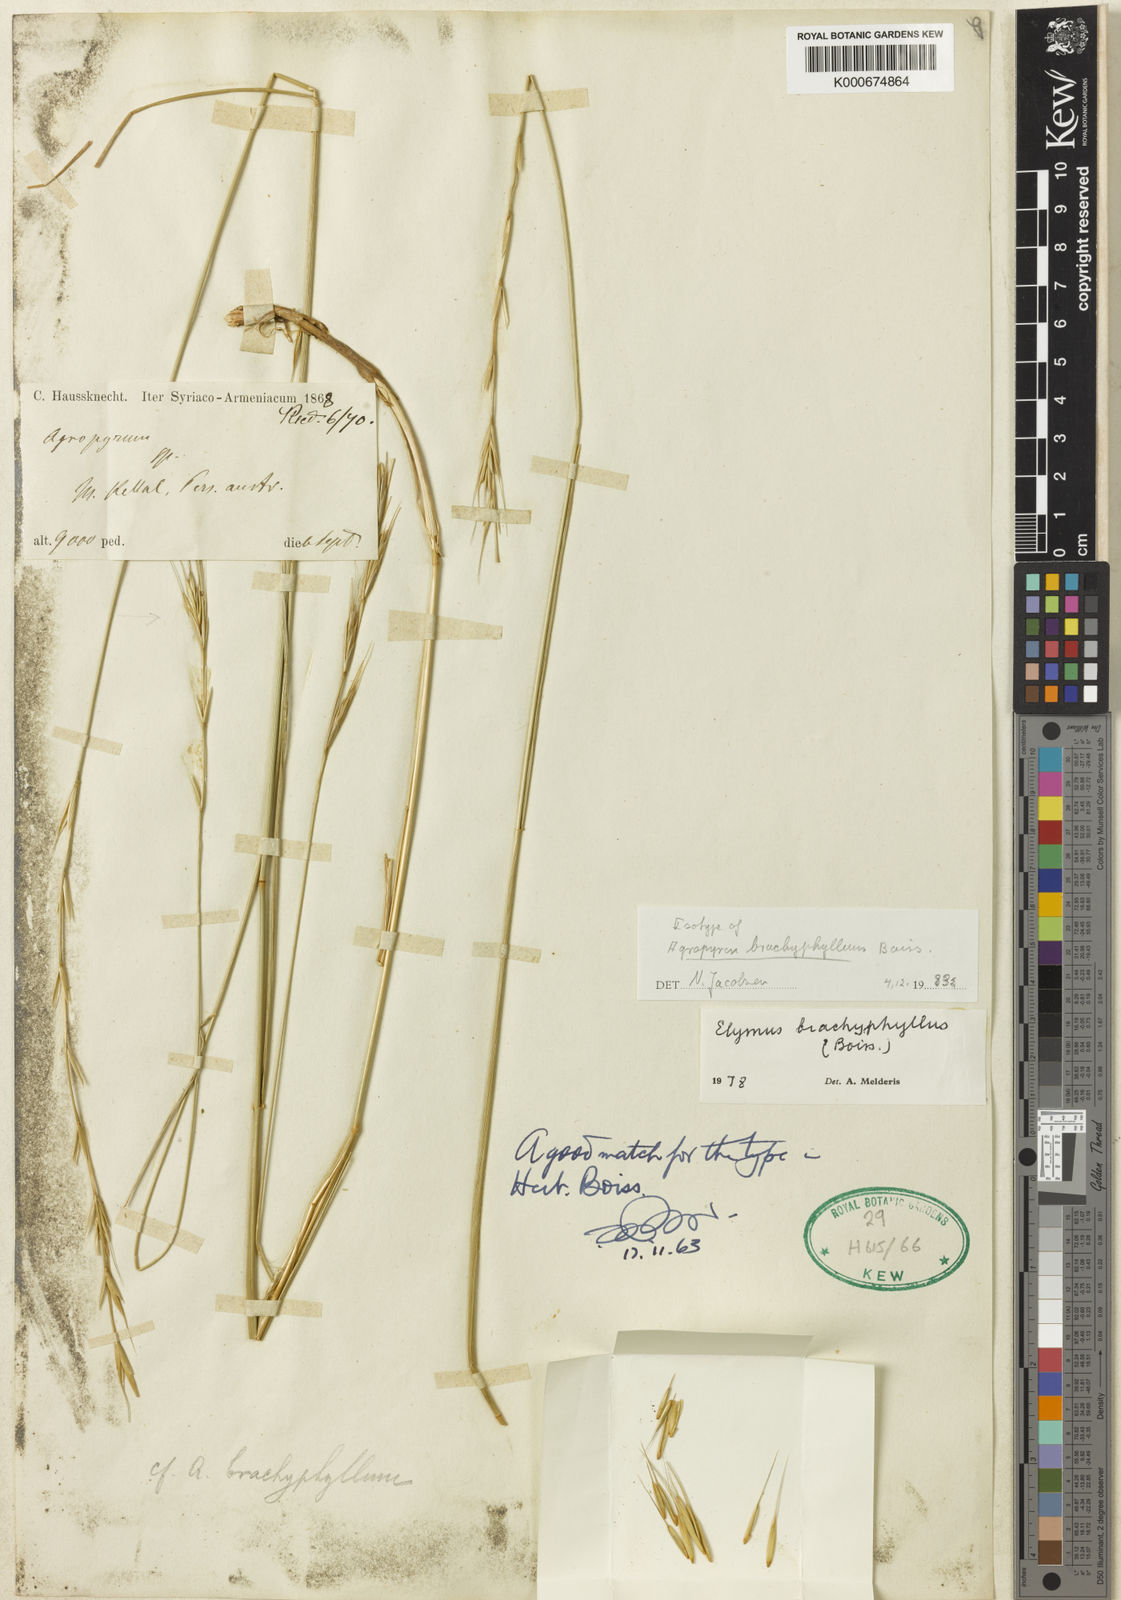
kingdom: Plantae
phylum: Tracheophyta
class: Liliopsida
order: Poales
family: Poaceae
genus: Elymus
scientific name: Elymus brachyphyllus
